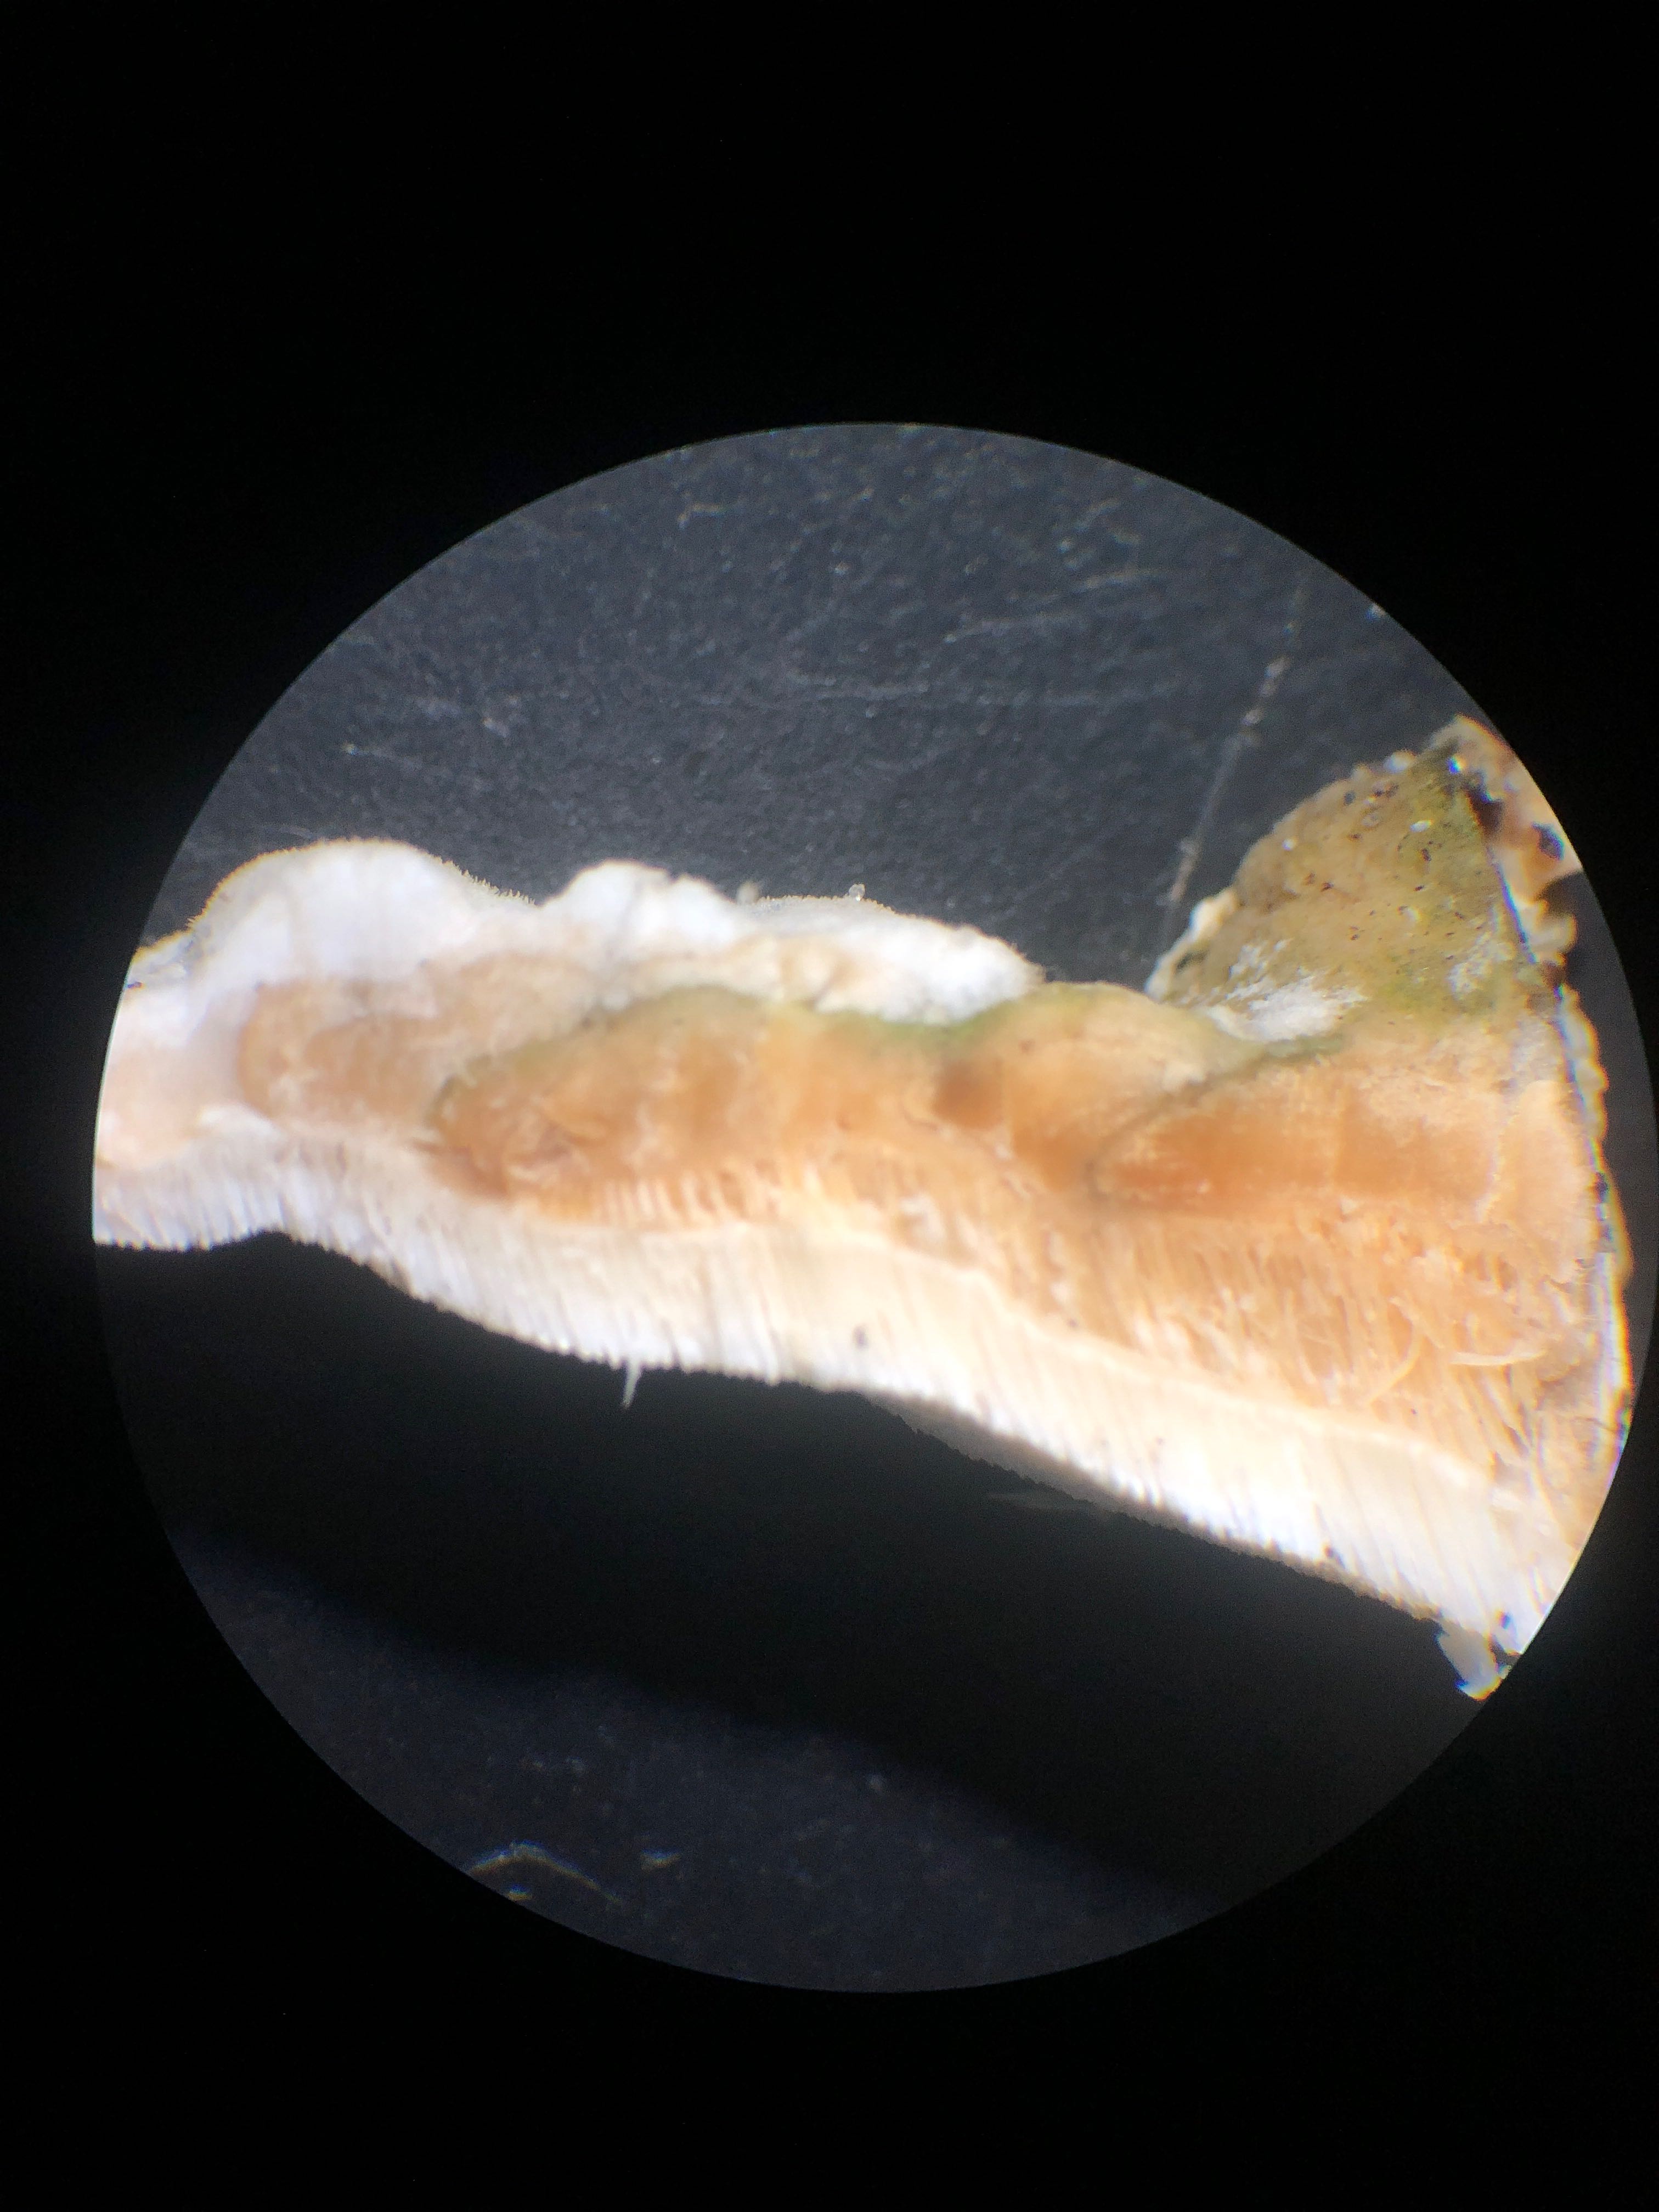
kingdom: Fungi
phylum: Basidiomycota
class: Agaricomycetes
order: Hymenochaetales
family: Oxyporaceae
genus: Oxyporus
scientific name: Oxyporus populinus
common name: sammenvokset trylleporesvamp
